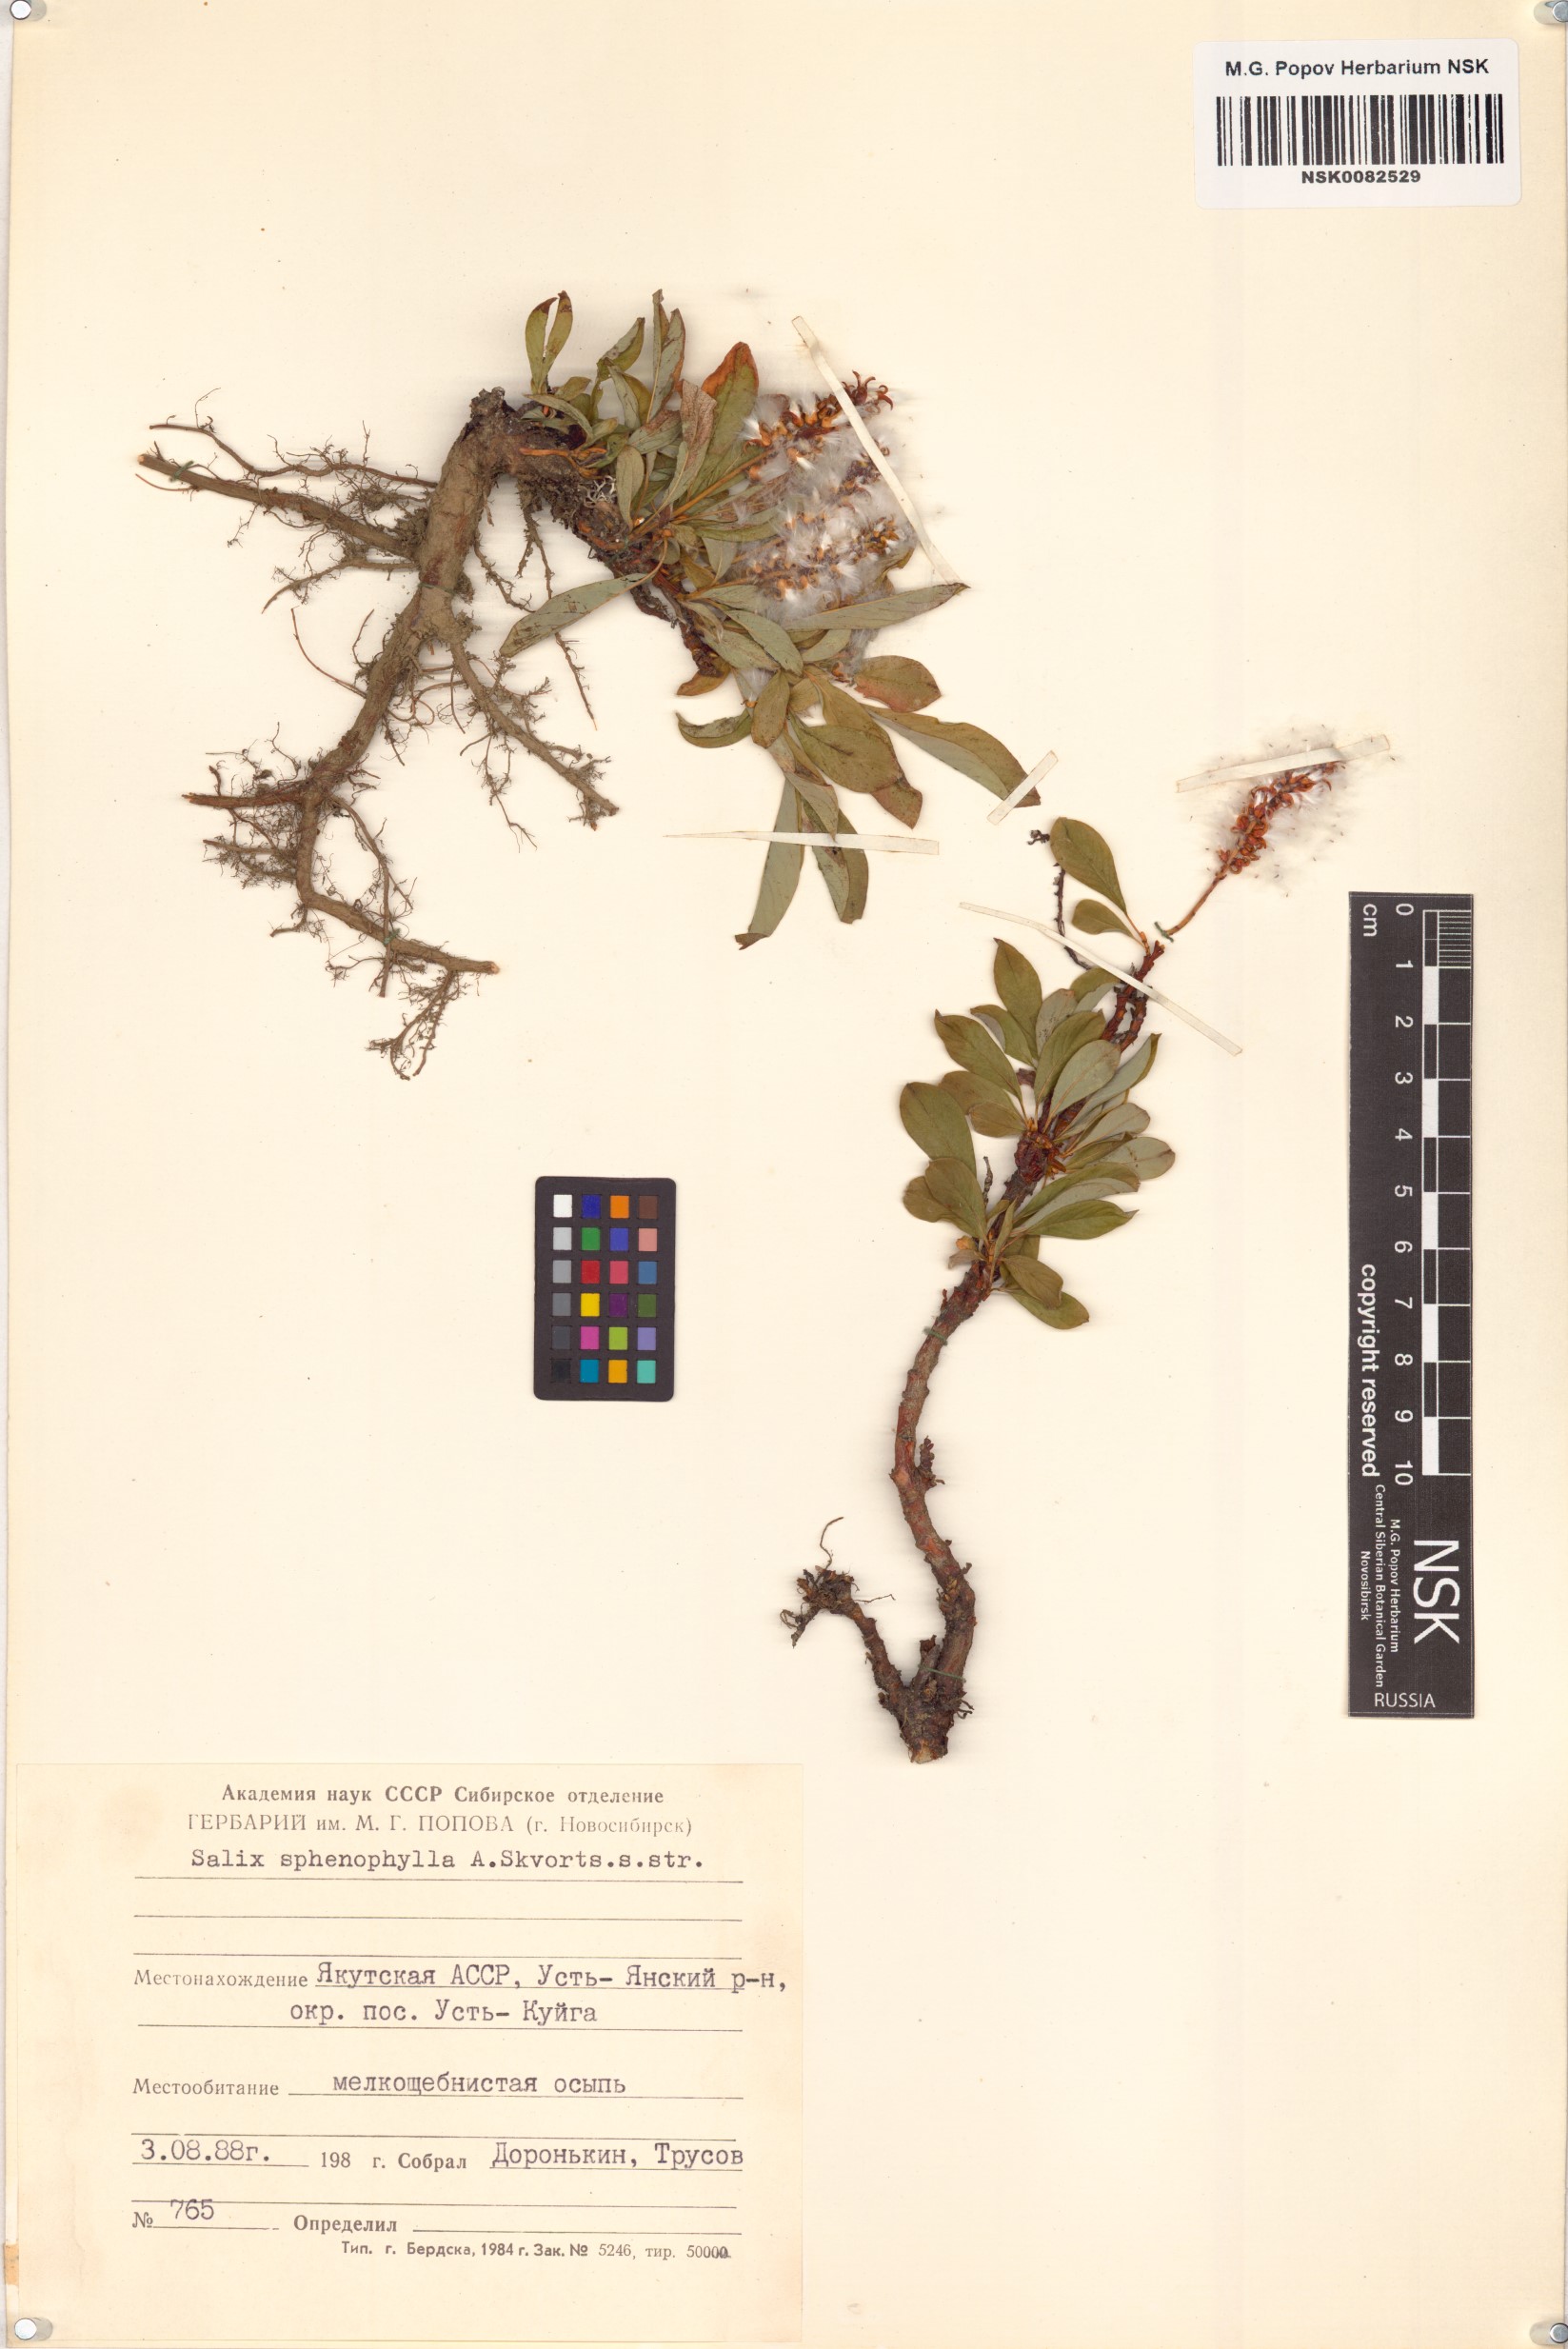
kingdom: Plantae
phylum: Tracheophyta
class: Magnoliopsida
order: Malpighiales
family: Salicaceae
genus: Salix
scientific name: Salix sphenophylla
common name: Wedge-leaved willow
